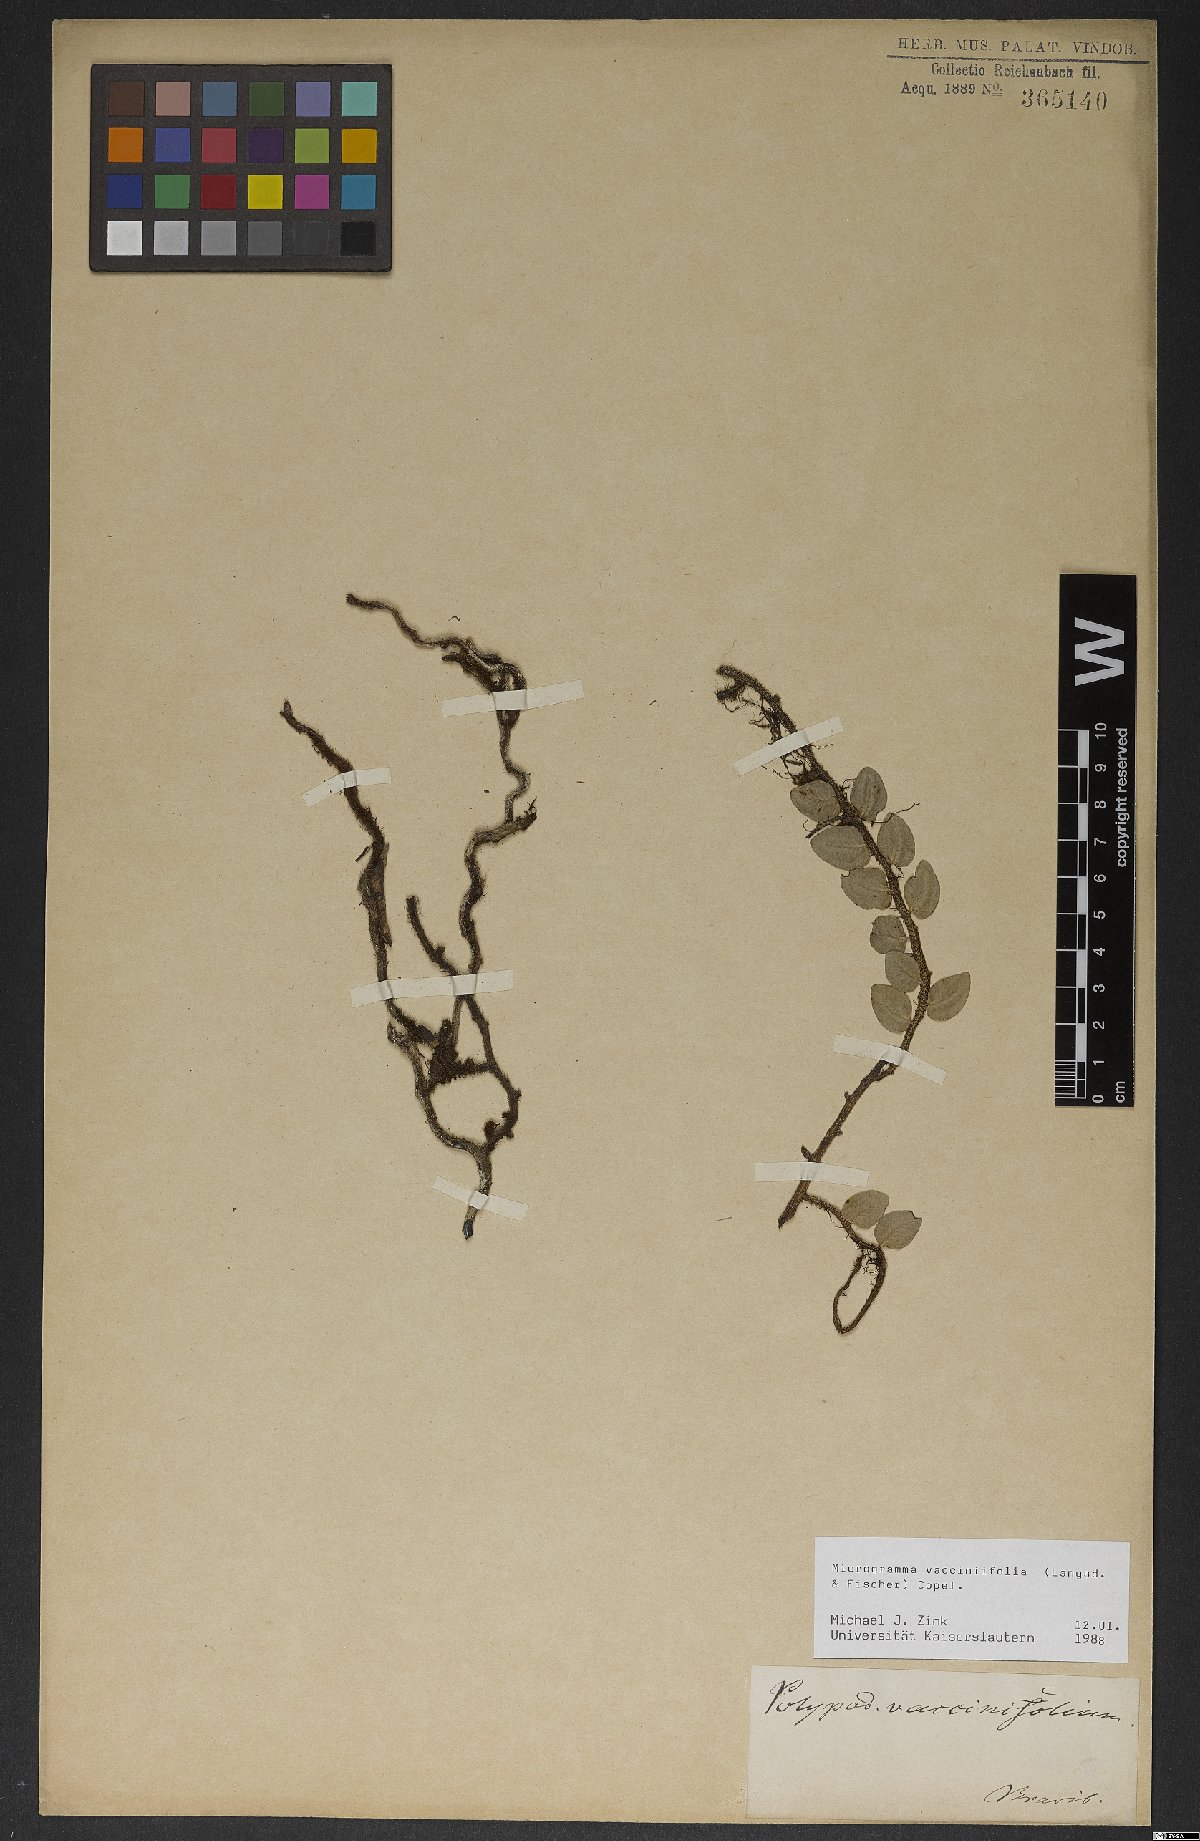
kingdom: Plantae
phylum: Tracheophyta
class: Polypodiopsida
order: Polypodiales
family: Polypodiaceae
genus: Microgramma
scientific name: Microgramma vaccinifolia
